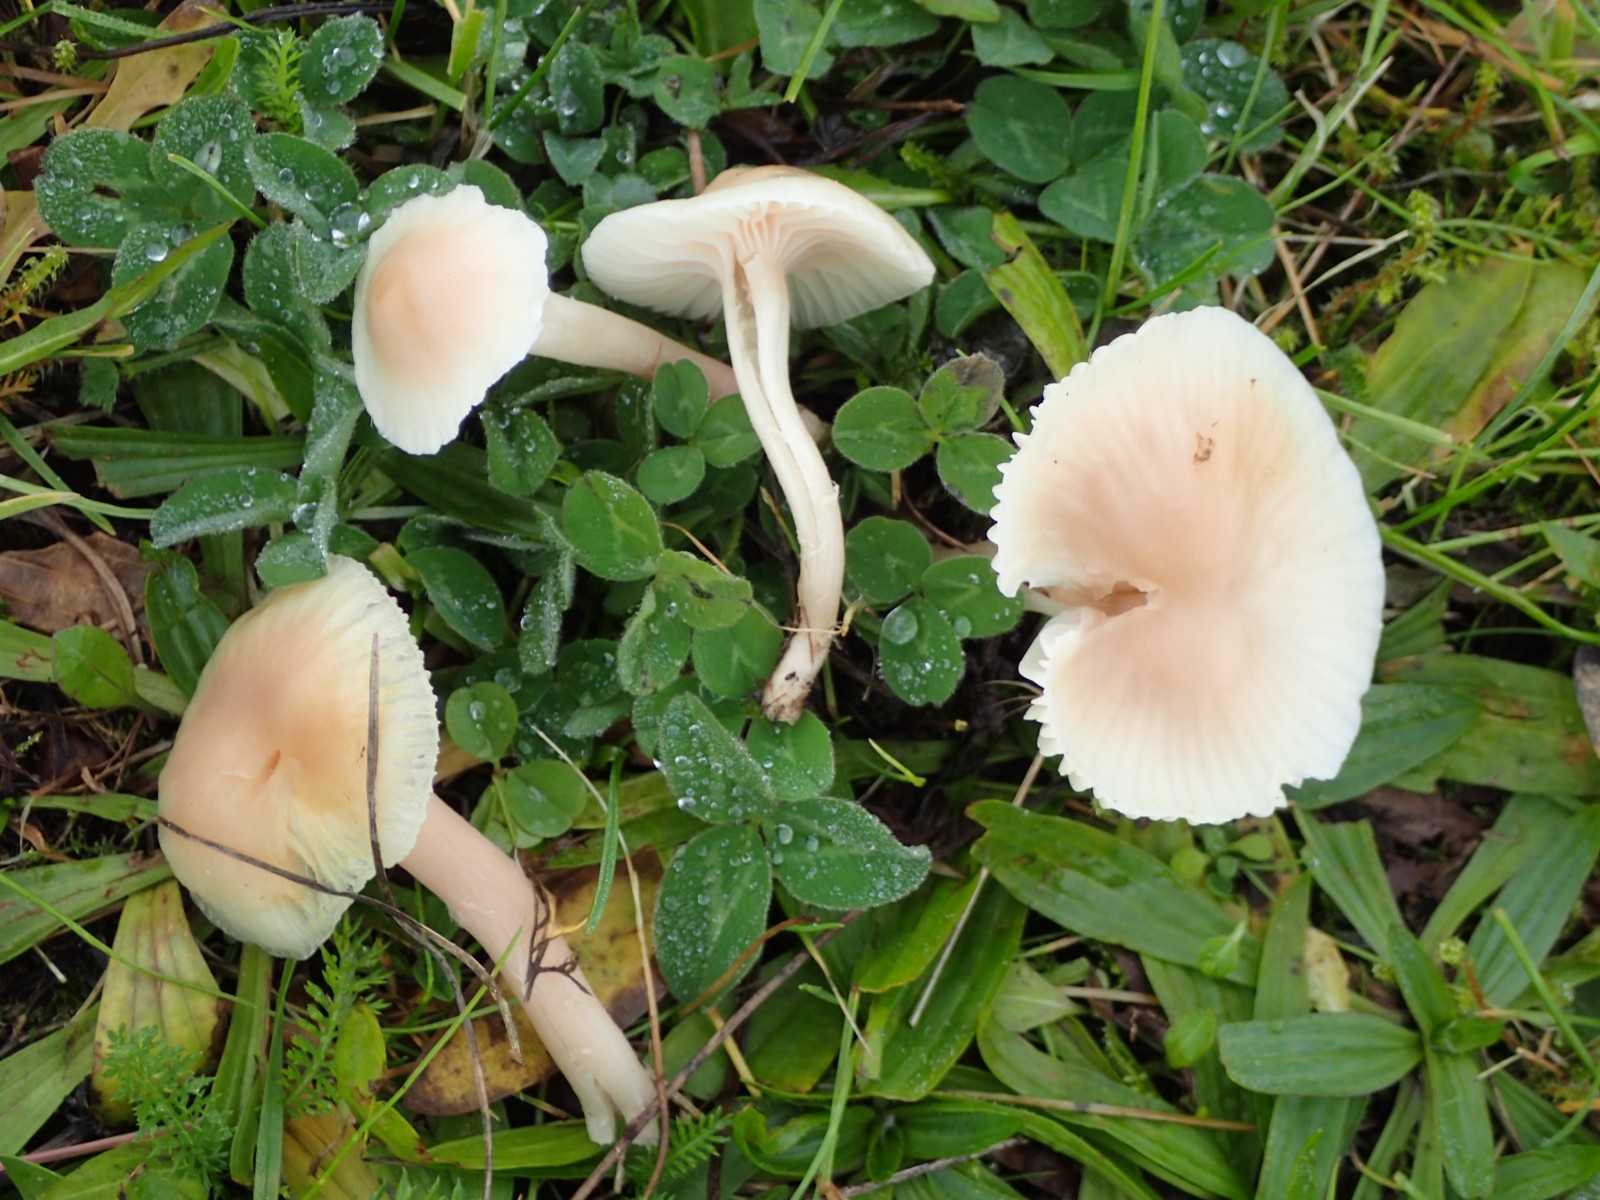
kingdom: Fungi
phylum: Basidiomycota
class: Agaricomycetes
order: Agaricales
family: Hygrophoraceae
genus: Cuphophyllus
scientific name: Cuphophyllus virgineus
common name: isabella-vokshat
